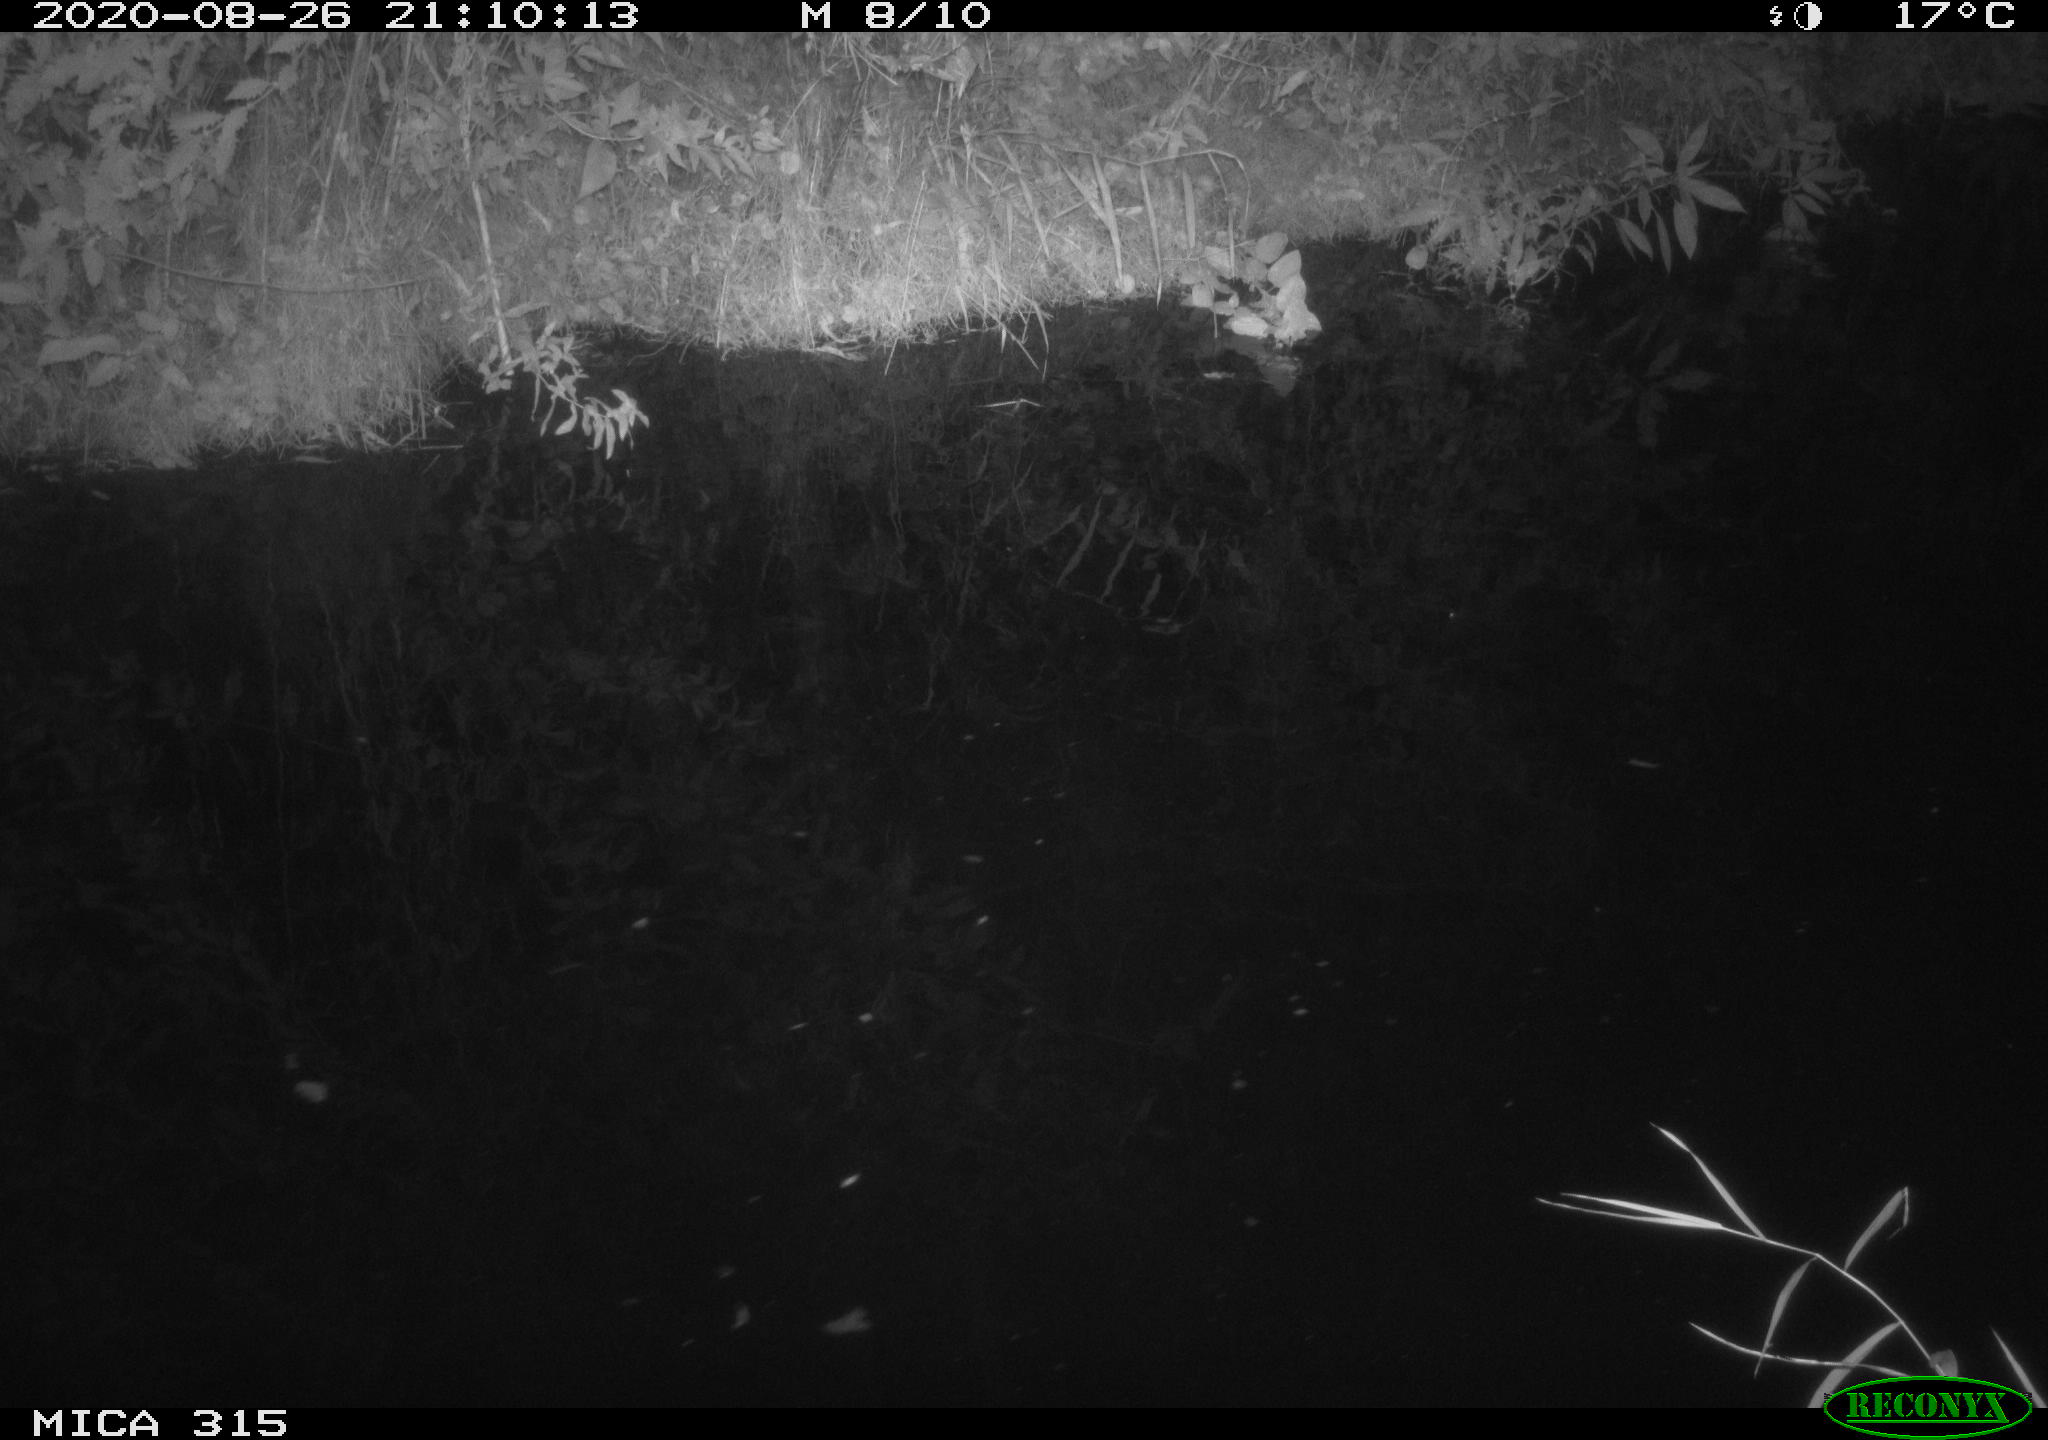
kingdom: Animalia
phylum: Chordata
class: Aves
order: Anseriformes
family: Anatidae
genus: Anas
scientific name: Anas platyrhynchos
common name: Mallard
